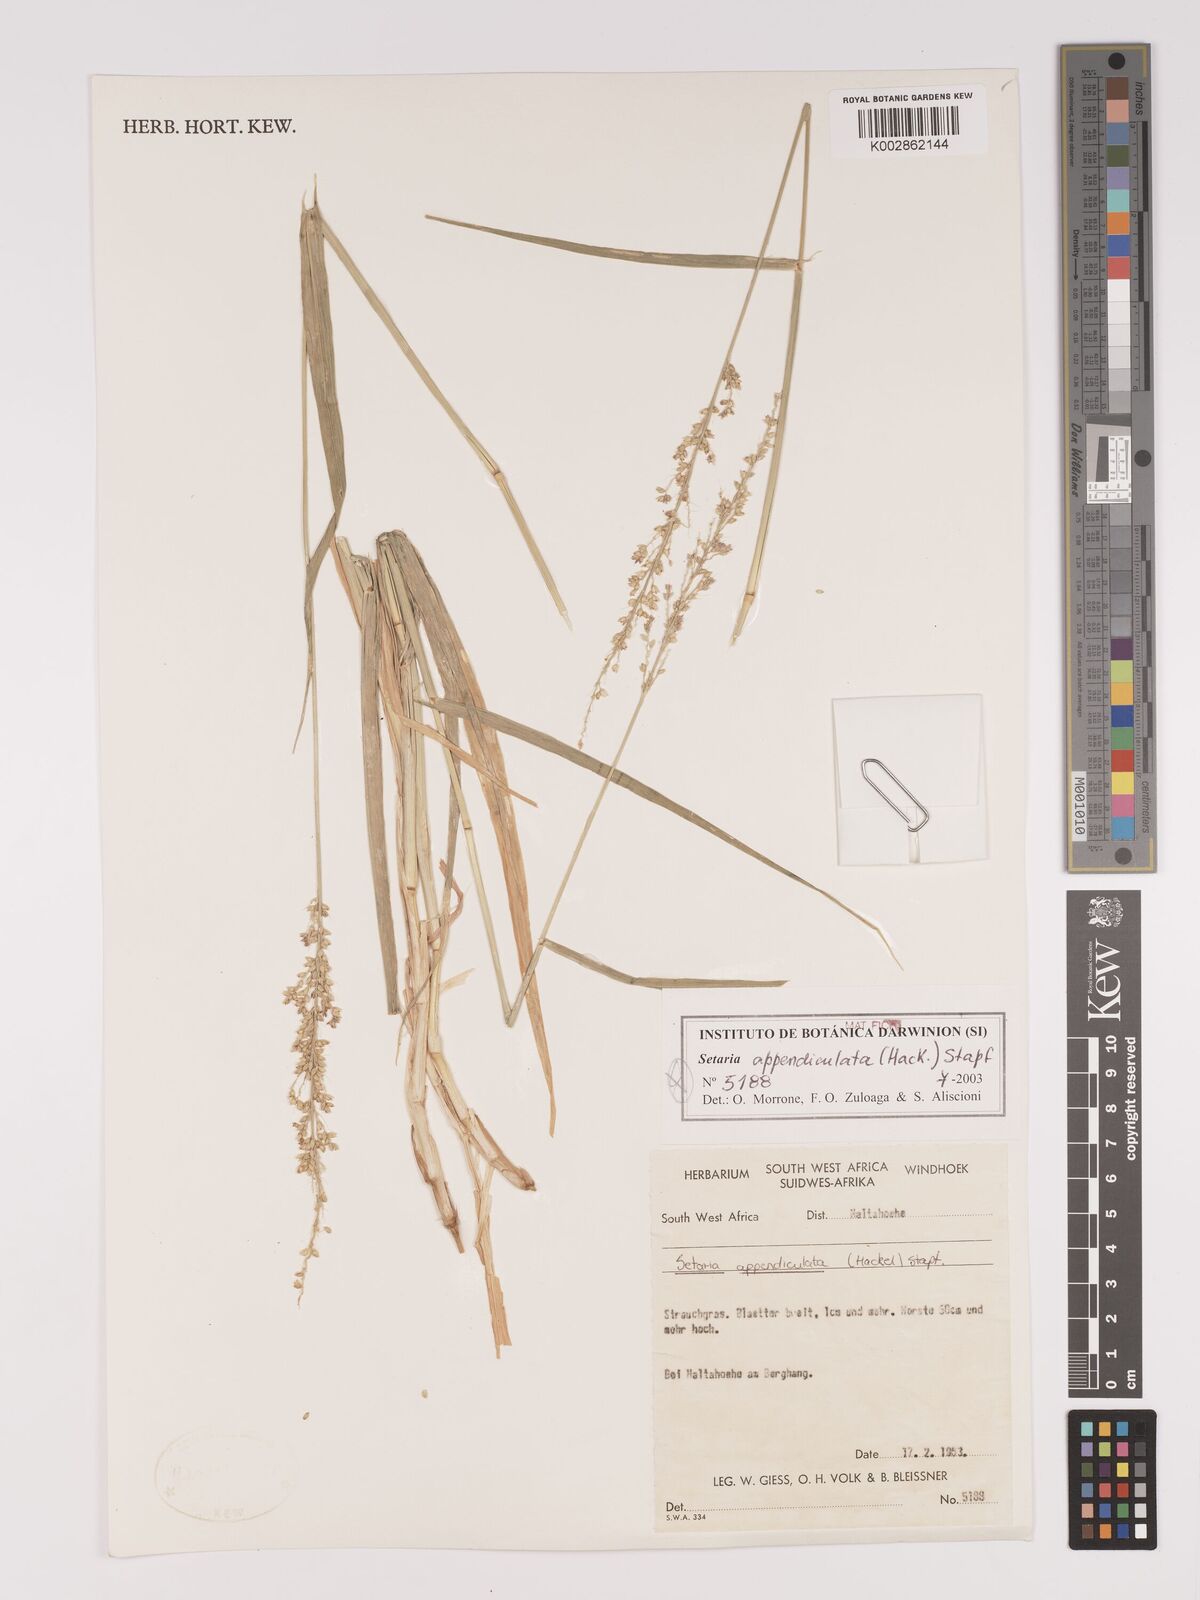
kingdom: Plantae
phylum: Tracheophyta
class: Liliopsida
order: Poales
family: Poaceae
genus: Setaria
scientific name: Setaria appendiculata
